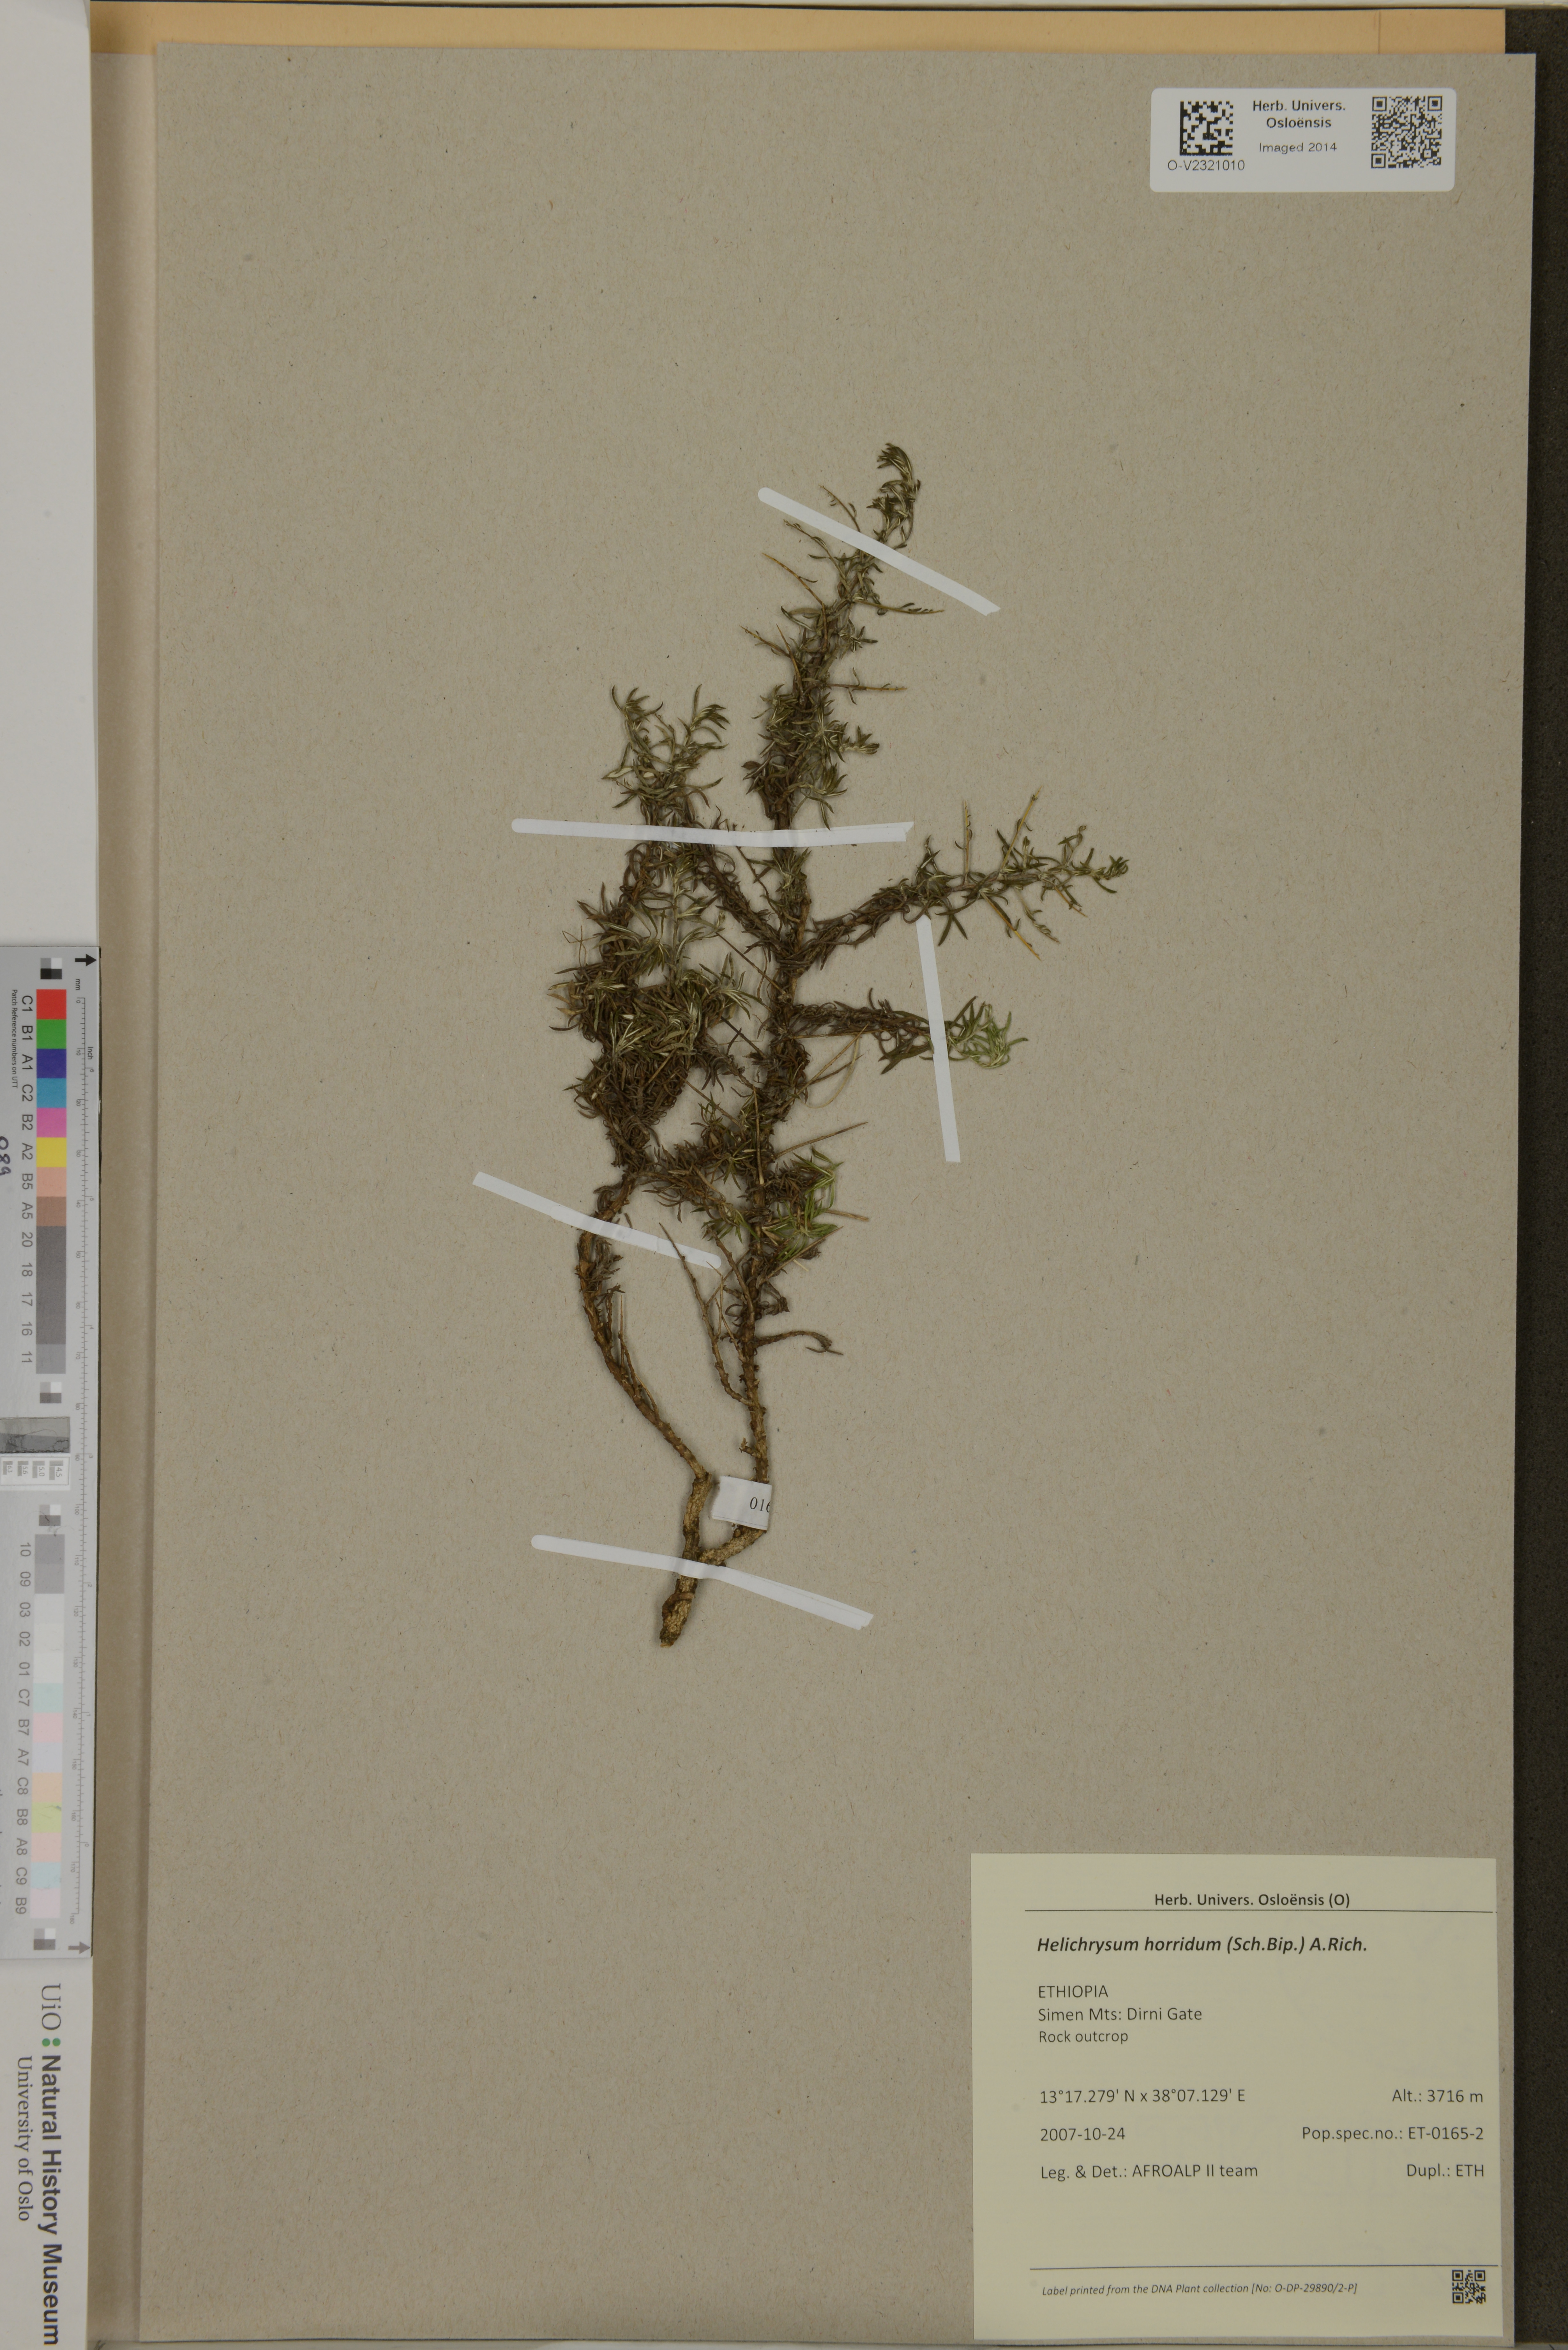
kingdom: Plantae
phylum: Tracheophyta
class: Magnoliopsida
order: Asterales
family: Asteraceae
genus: Helichrysum
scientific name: Helichrysum horridum
